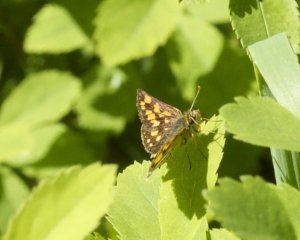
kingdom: Animalia
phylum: Arthropoda
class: Insecta
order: Lepidoptera
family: Hesperiidae
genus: Carterocephalus
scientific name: Carterocephalus palaemon
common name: Chequered Skipper
